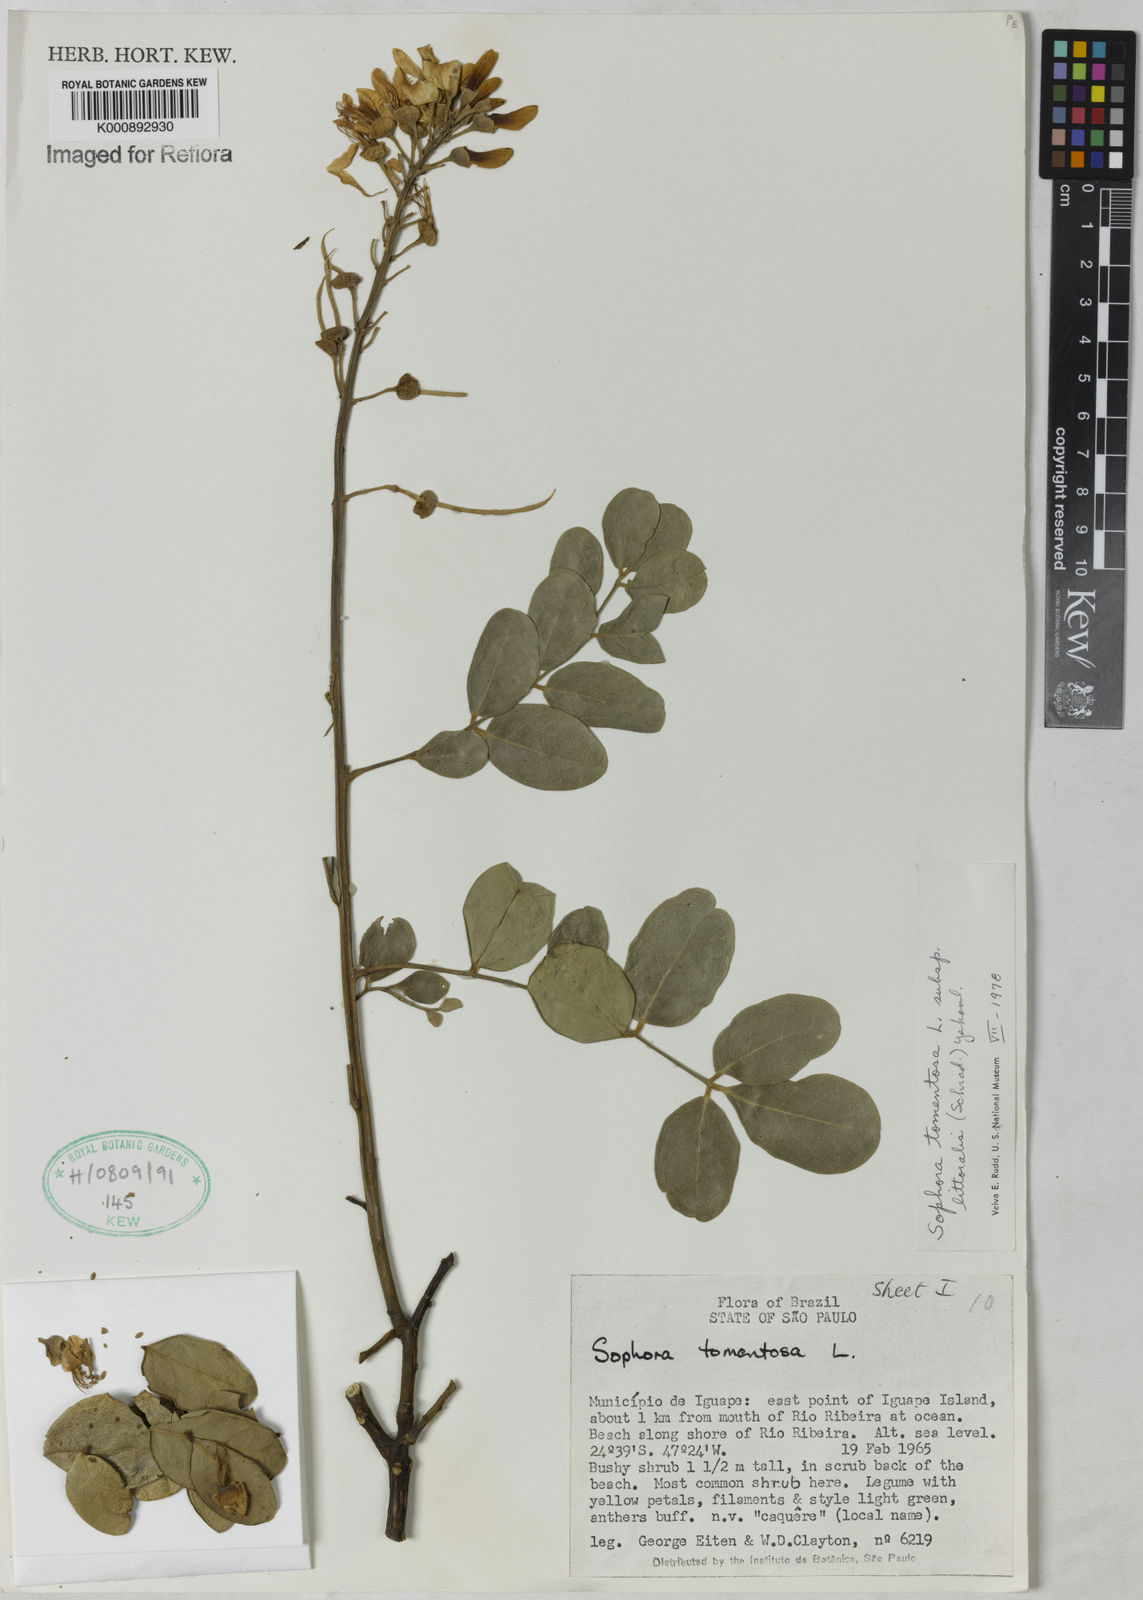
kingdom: Plantae
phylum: Tracheophyta
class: Magnoliopsida
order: Fabales
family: Fabaceae
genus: Sophora
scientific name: Sophora tomentosa
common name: Yellow necklacepod
